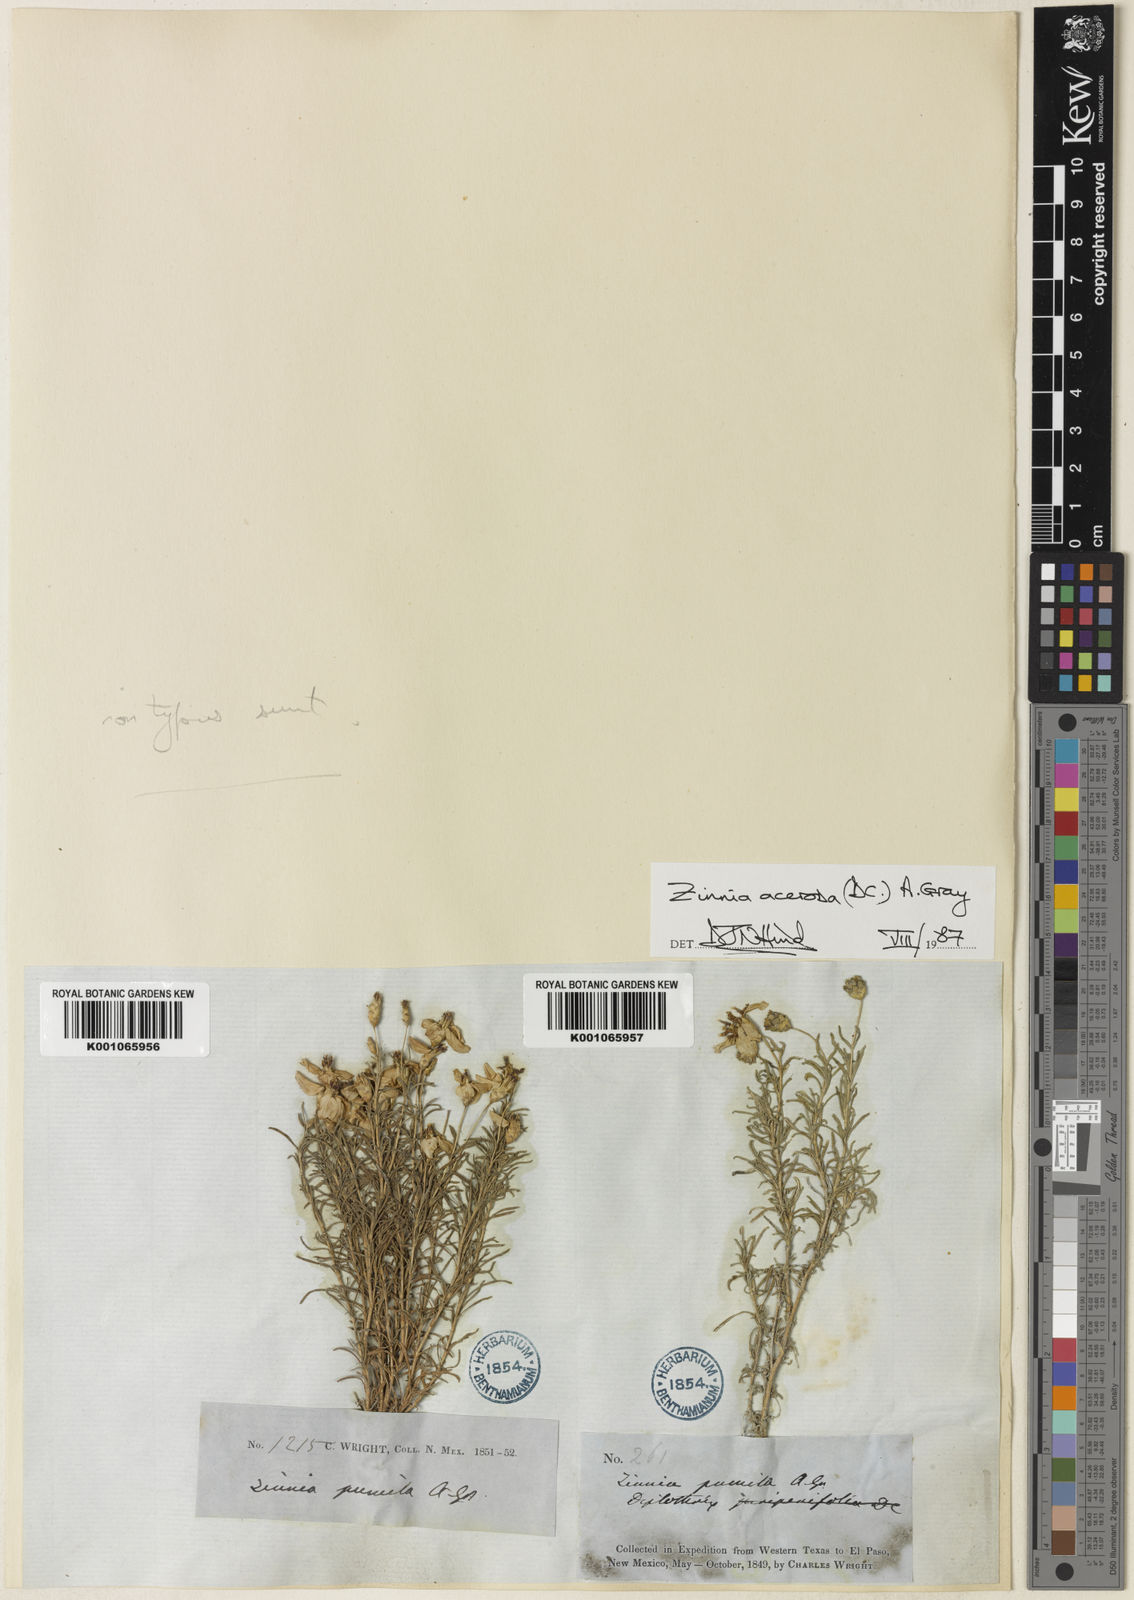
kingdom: Plantae
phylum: Tracheophyta
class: Magnoliopsida
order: Asterales
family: Asteraceae
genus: Zinnia
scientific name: Zinnia acerosa
